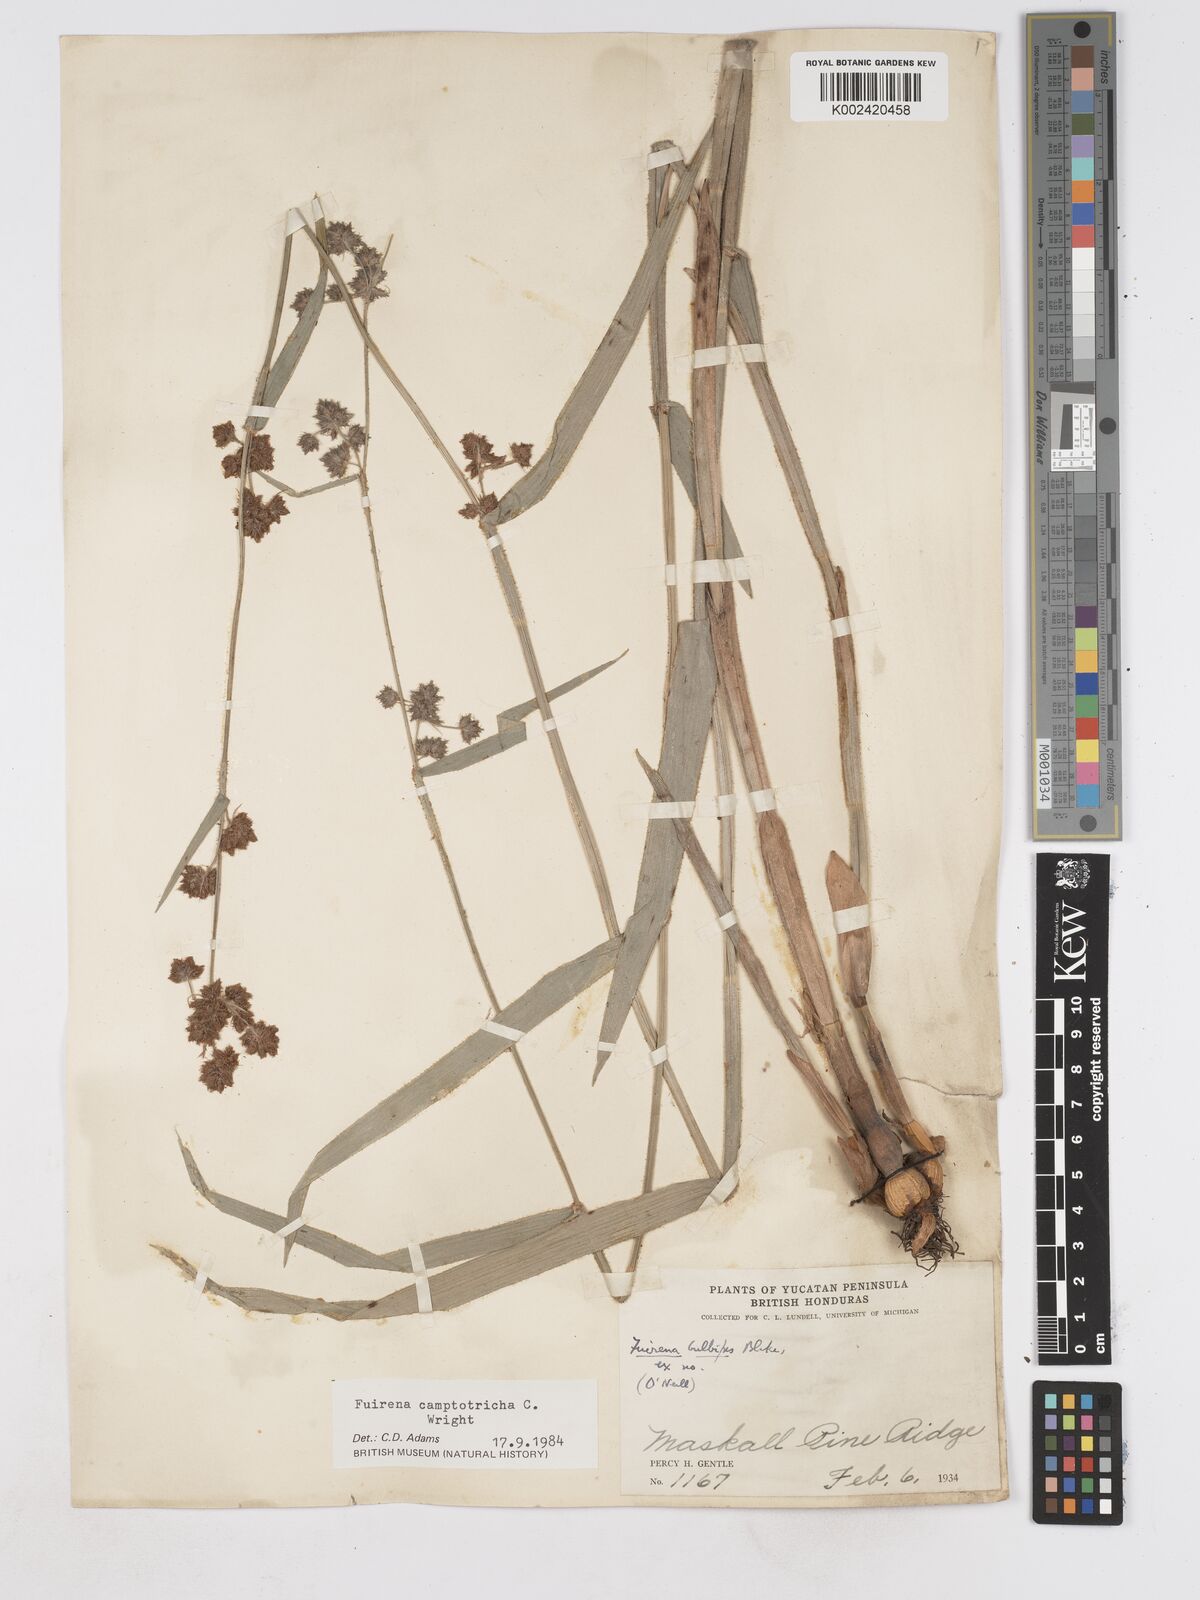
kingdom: Plantae
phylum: Tracheophyta
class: Liliopsida
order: Poales
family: Cyperaceae
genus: Fuirena
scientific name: Fuirena camptotricha
